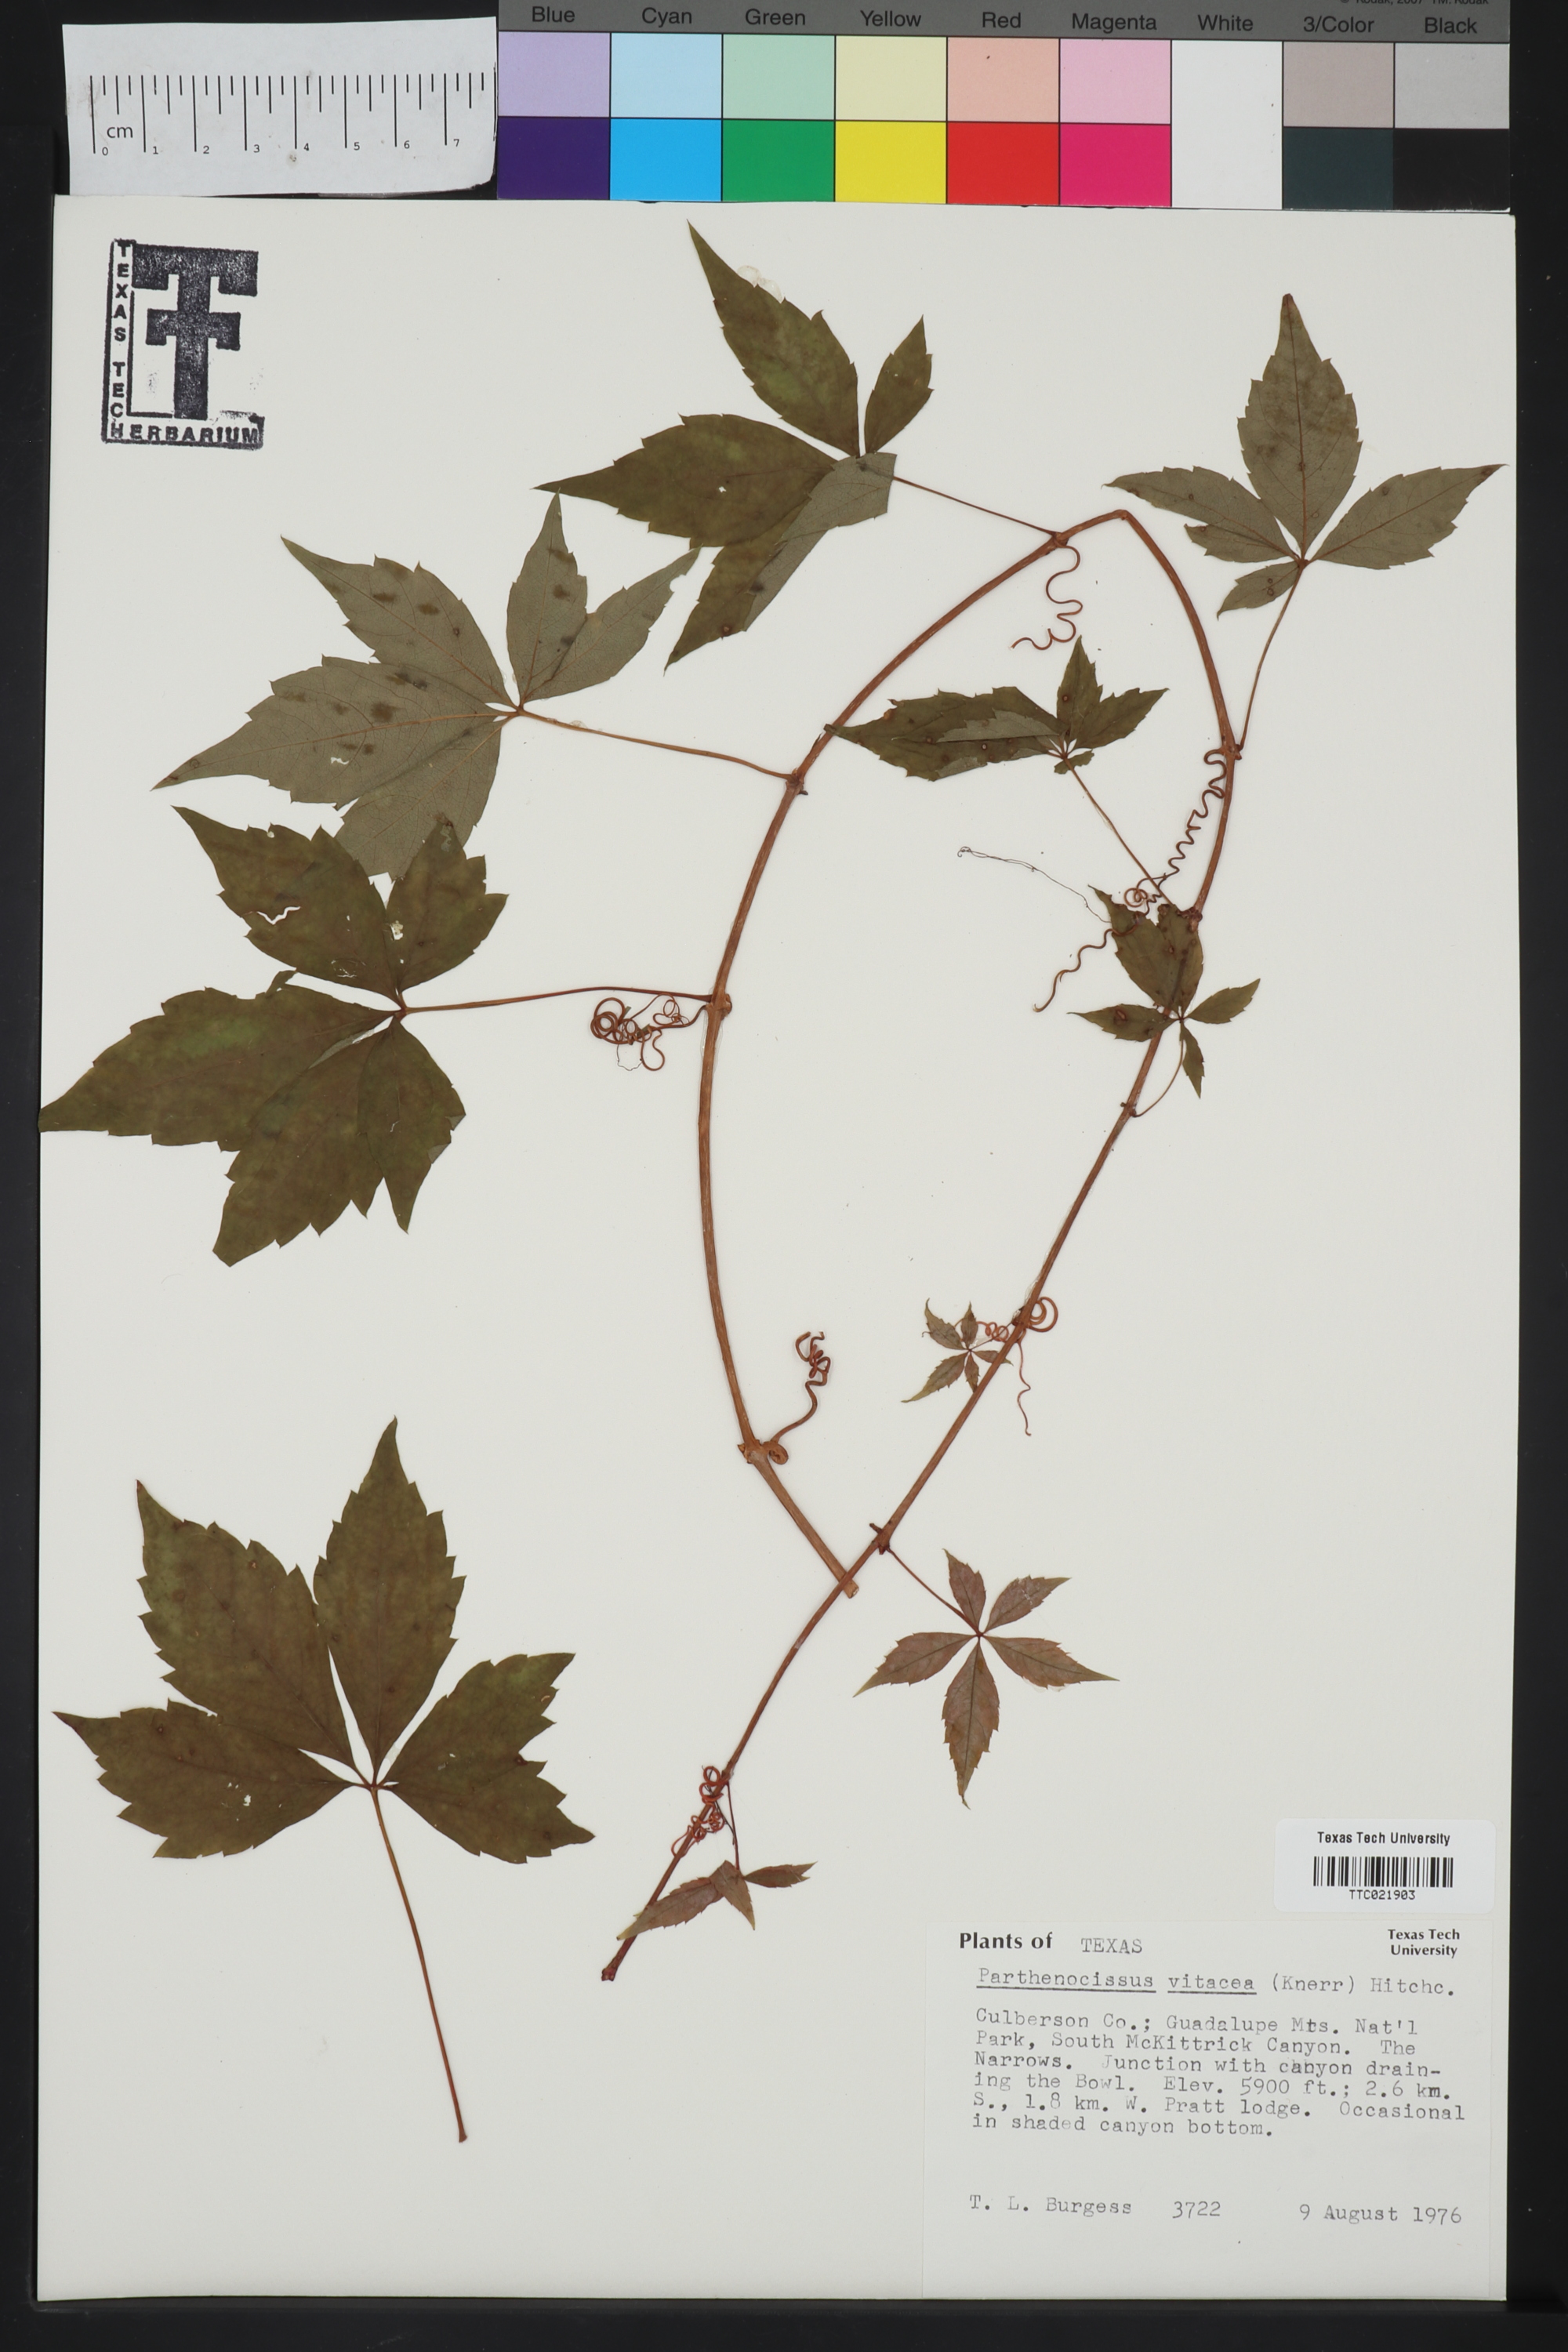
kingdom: Plantae
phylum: Tracheophyta
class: Magnoliopsida
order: Vitales
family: Vitaceae
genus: Parthenocissus
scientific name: Parthenocissus inserta
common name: False virginia-creeper
